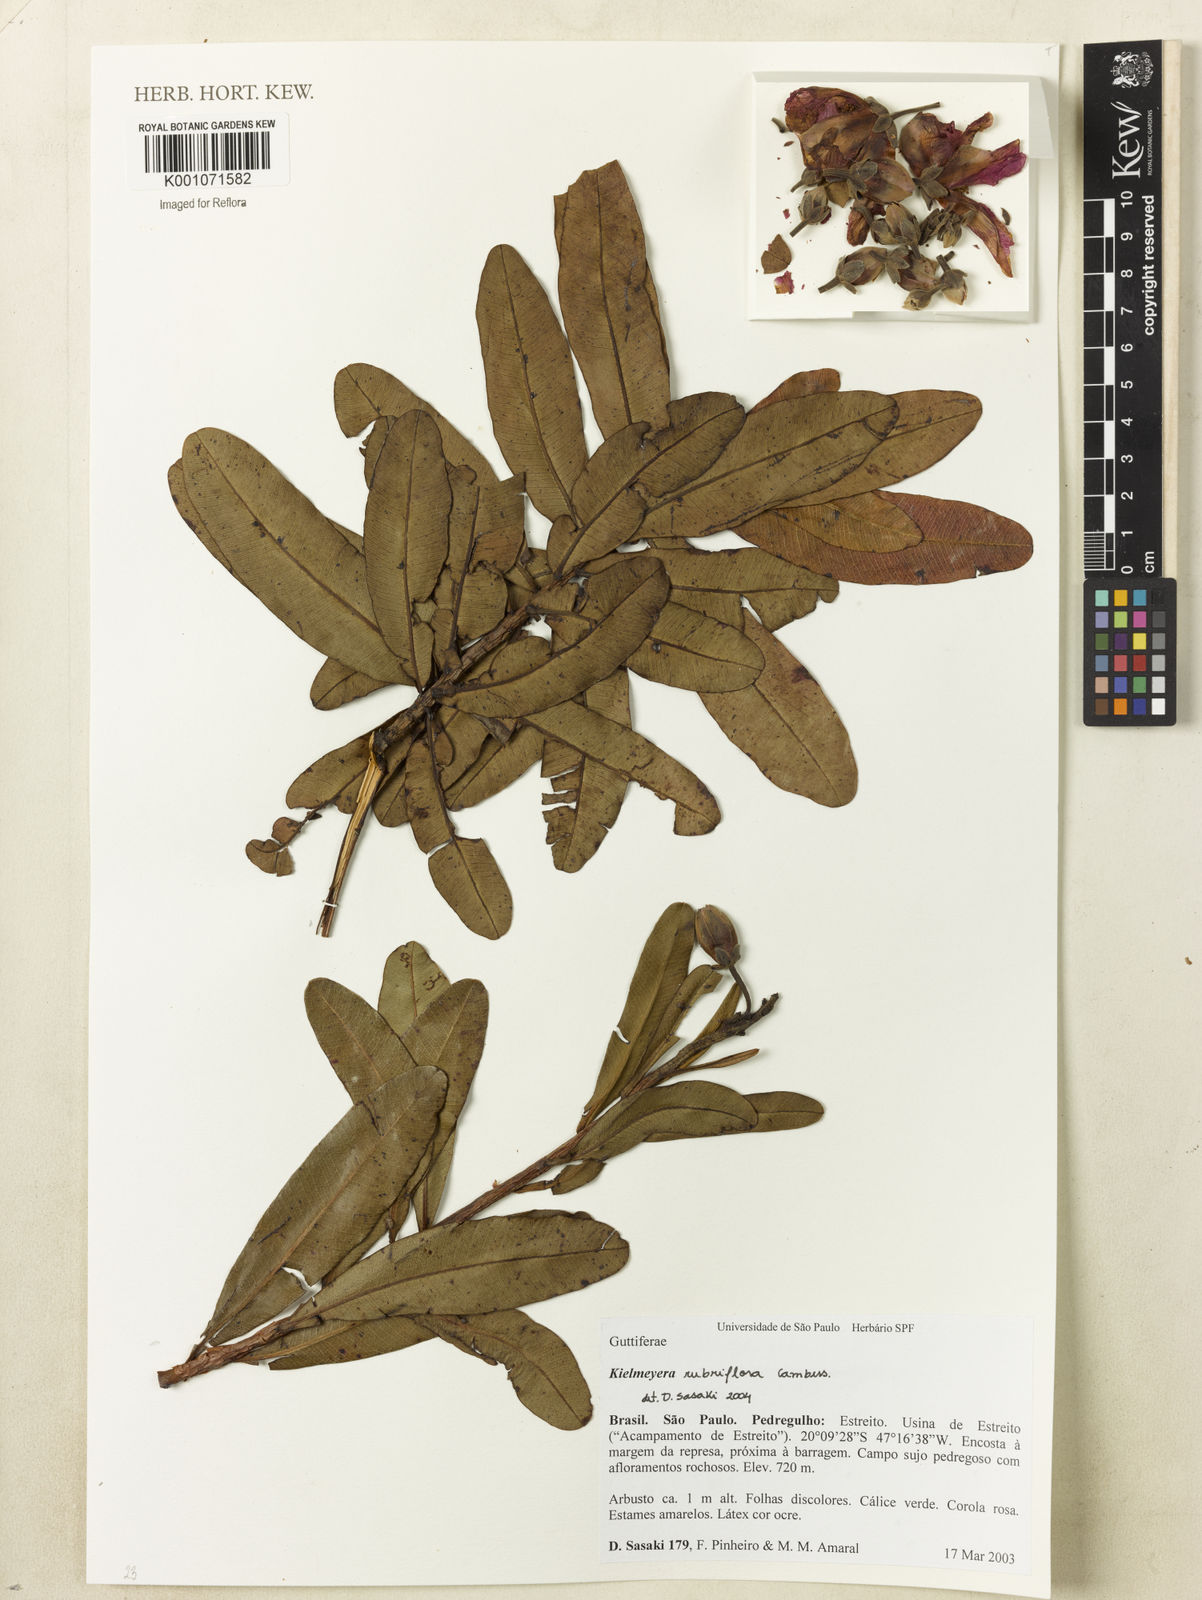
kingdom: Plantae
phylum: Tracheophyta
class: Magnoliopsida
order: Malpighiales
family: Calophyllaceae
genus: Kielmeyera
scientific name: Kielmeyera rubriflora
